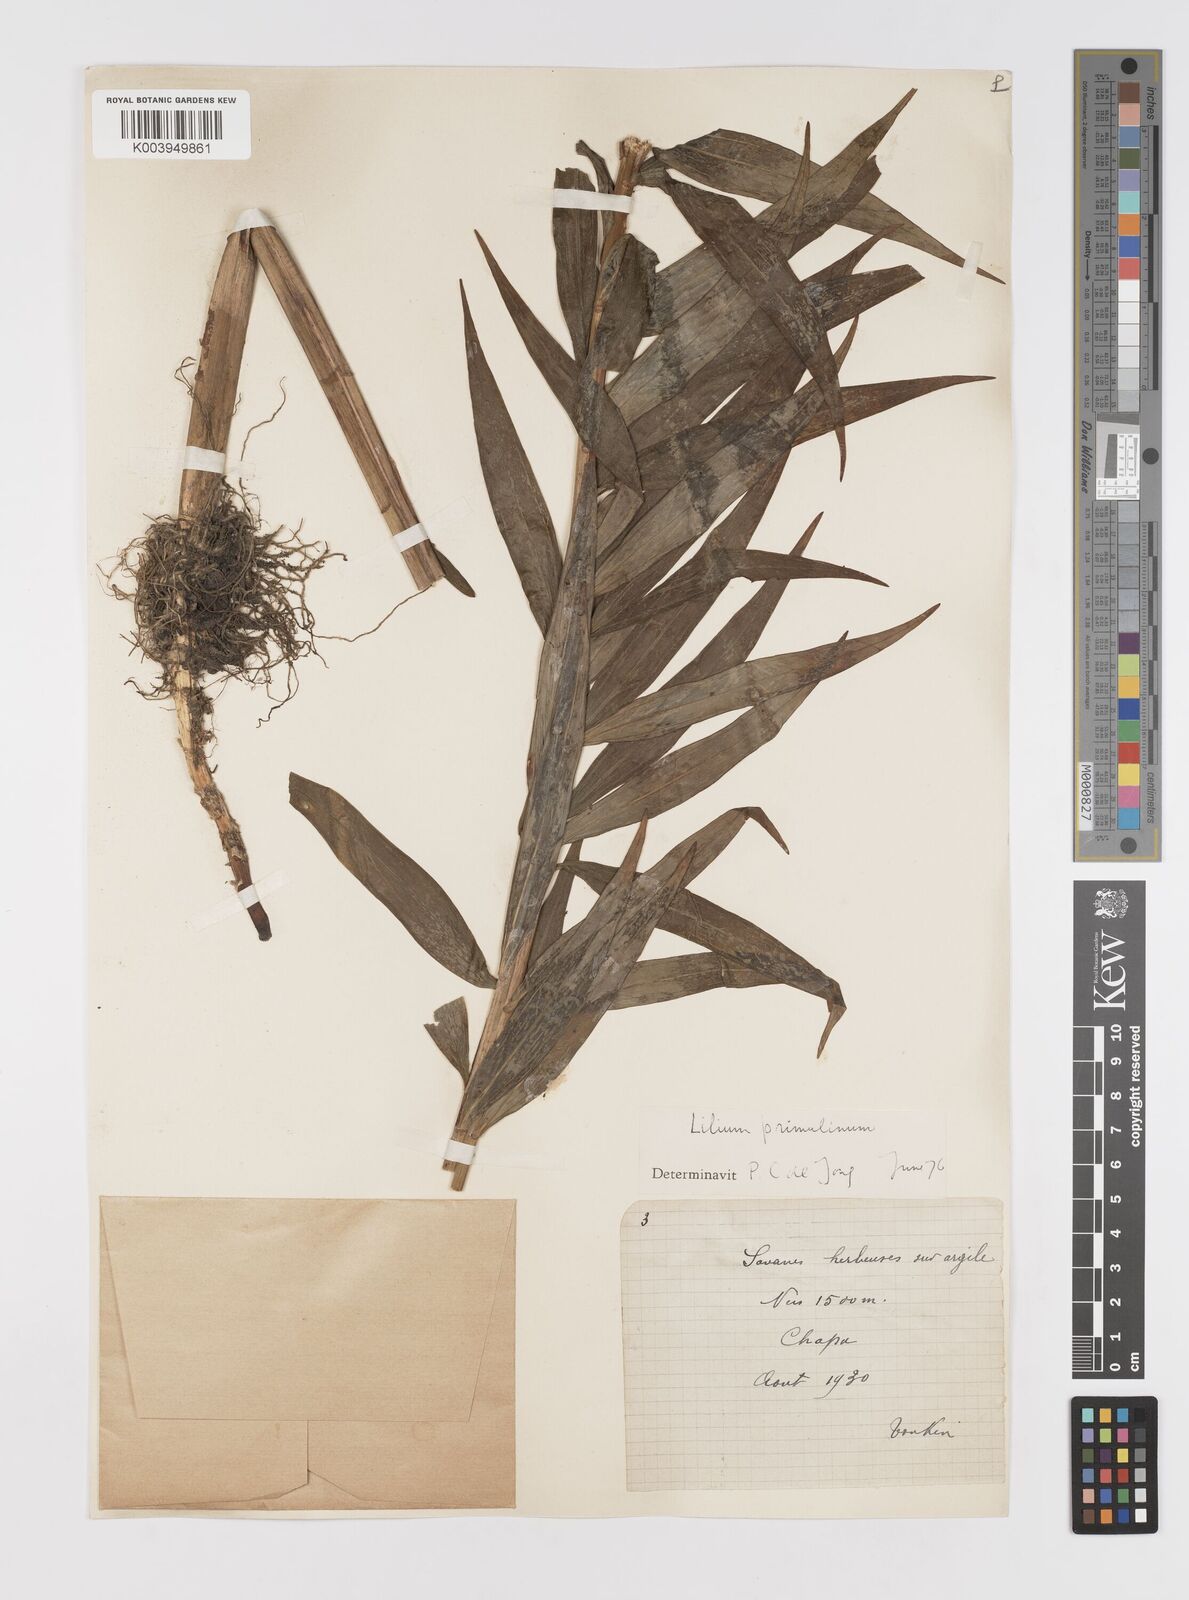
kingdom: Plantae
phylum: Tracheophyta
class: Liliopsida
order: Liliales
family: Liliaceae
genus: Lilium
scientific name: Lilium primulinum
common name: Ochre lily
